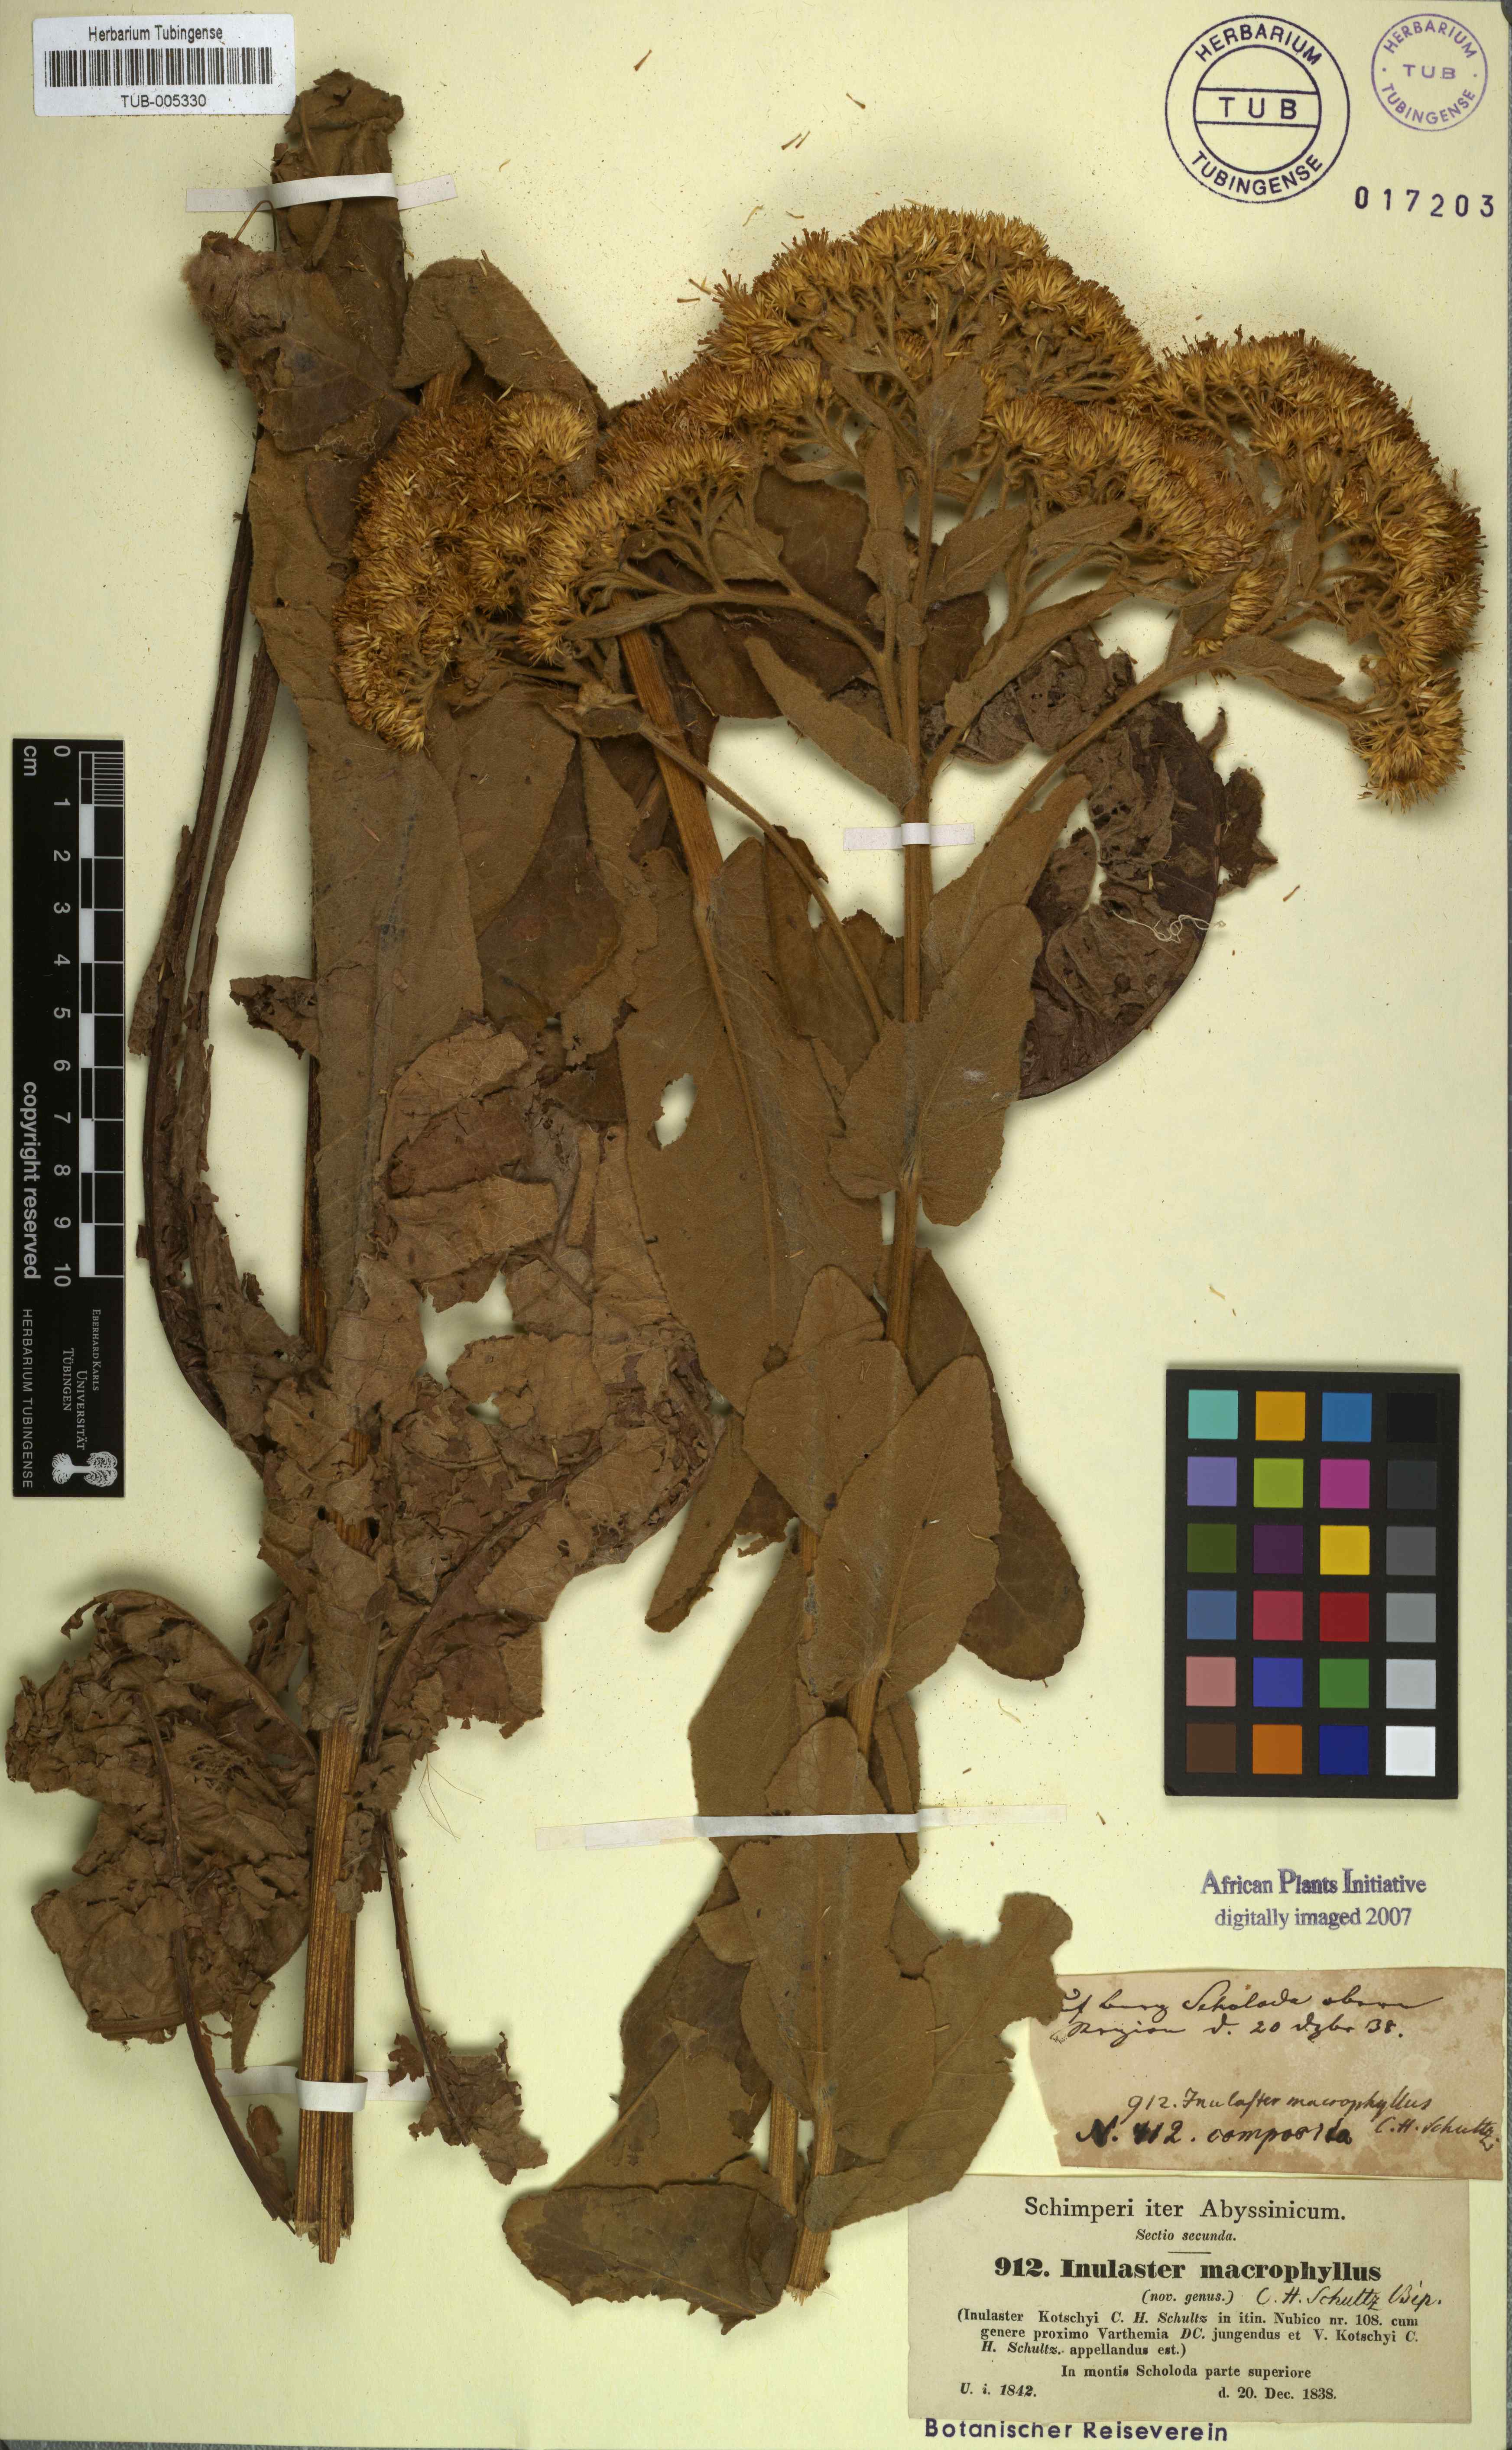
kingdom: Plantae
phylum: Tracheophyta
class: Magnoliopsida
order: Asterales
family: Asteraceae
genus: Monactinocephalus
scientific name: Monactinocephalus paniculatus
